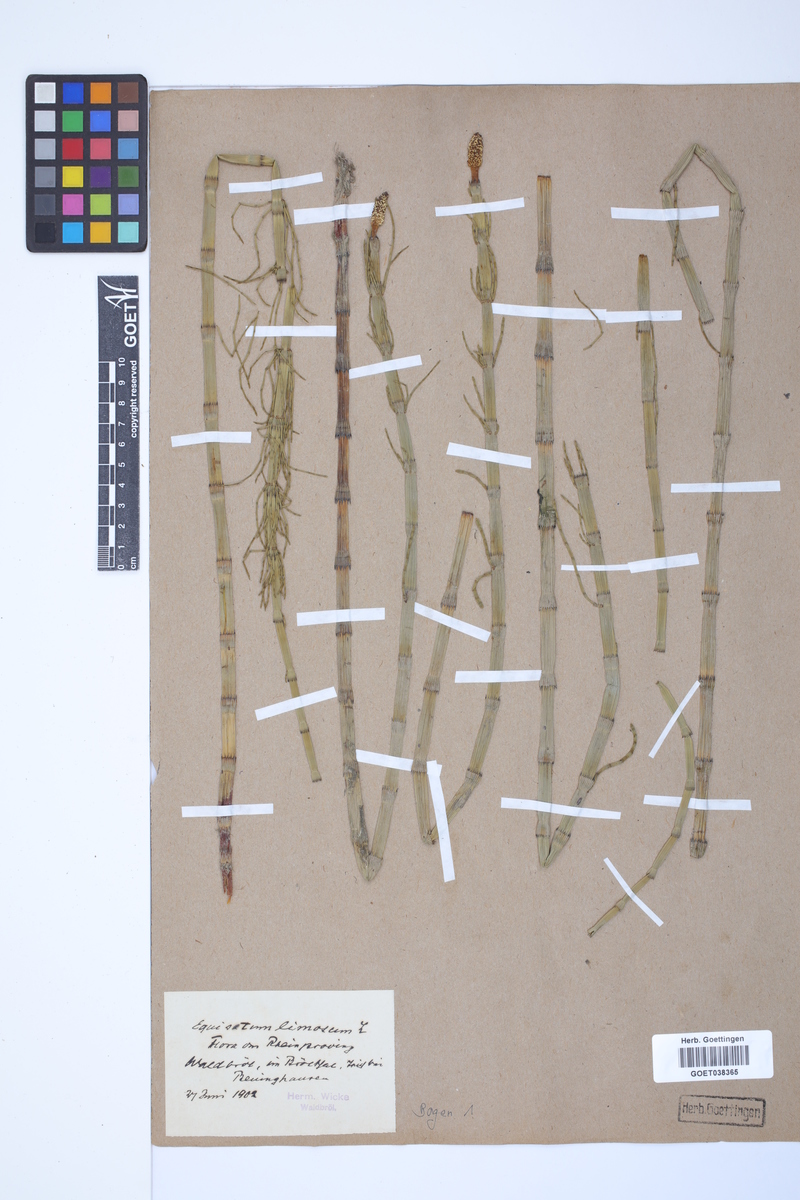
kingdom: Plantae
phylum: Tracheophyta
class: Polypodiopsida
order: Equisetales
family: Equisetaceae
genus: Equisetum
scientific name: Equisetum fluviatile
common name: Water horsetail
